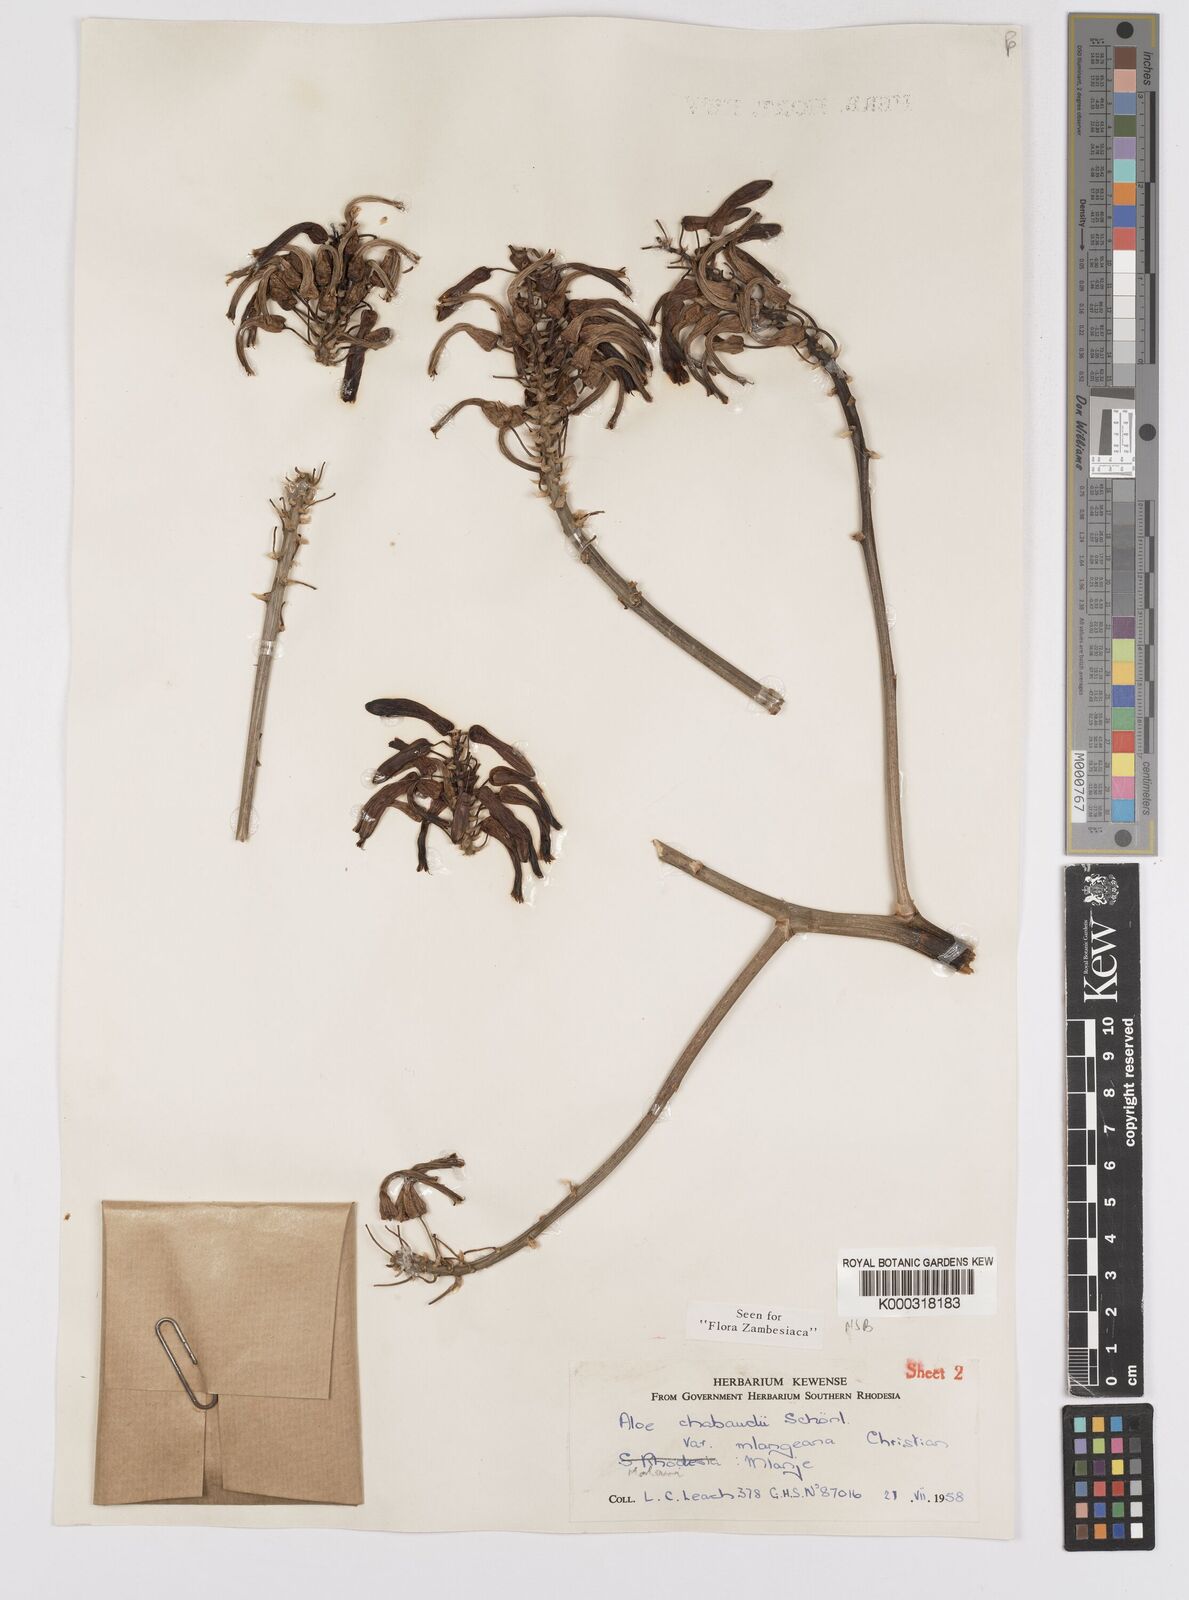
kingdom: Plantae
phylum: Tracheophyta
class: Liliopsida
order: Asparagales
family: Asphodelaceae
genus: Aloe
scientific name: Aloe chabaudii
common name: Chabaud's aloe
